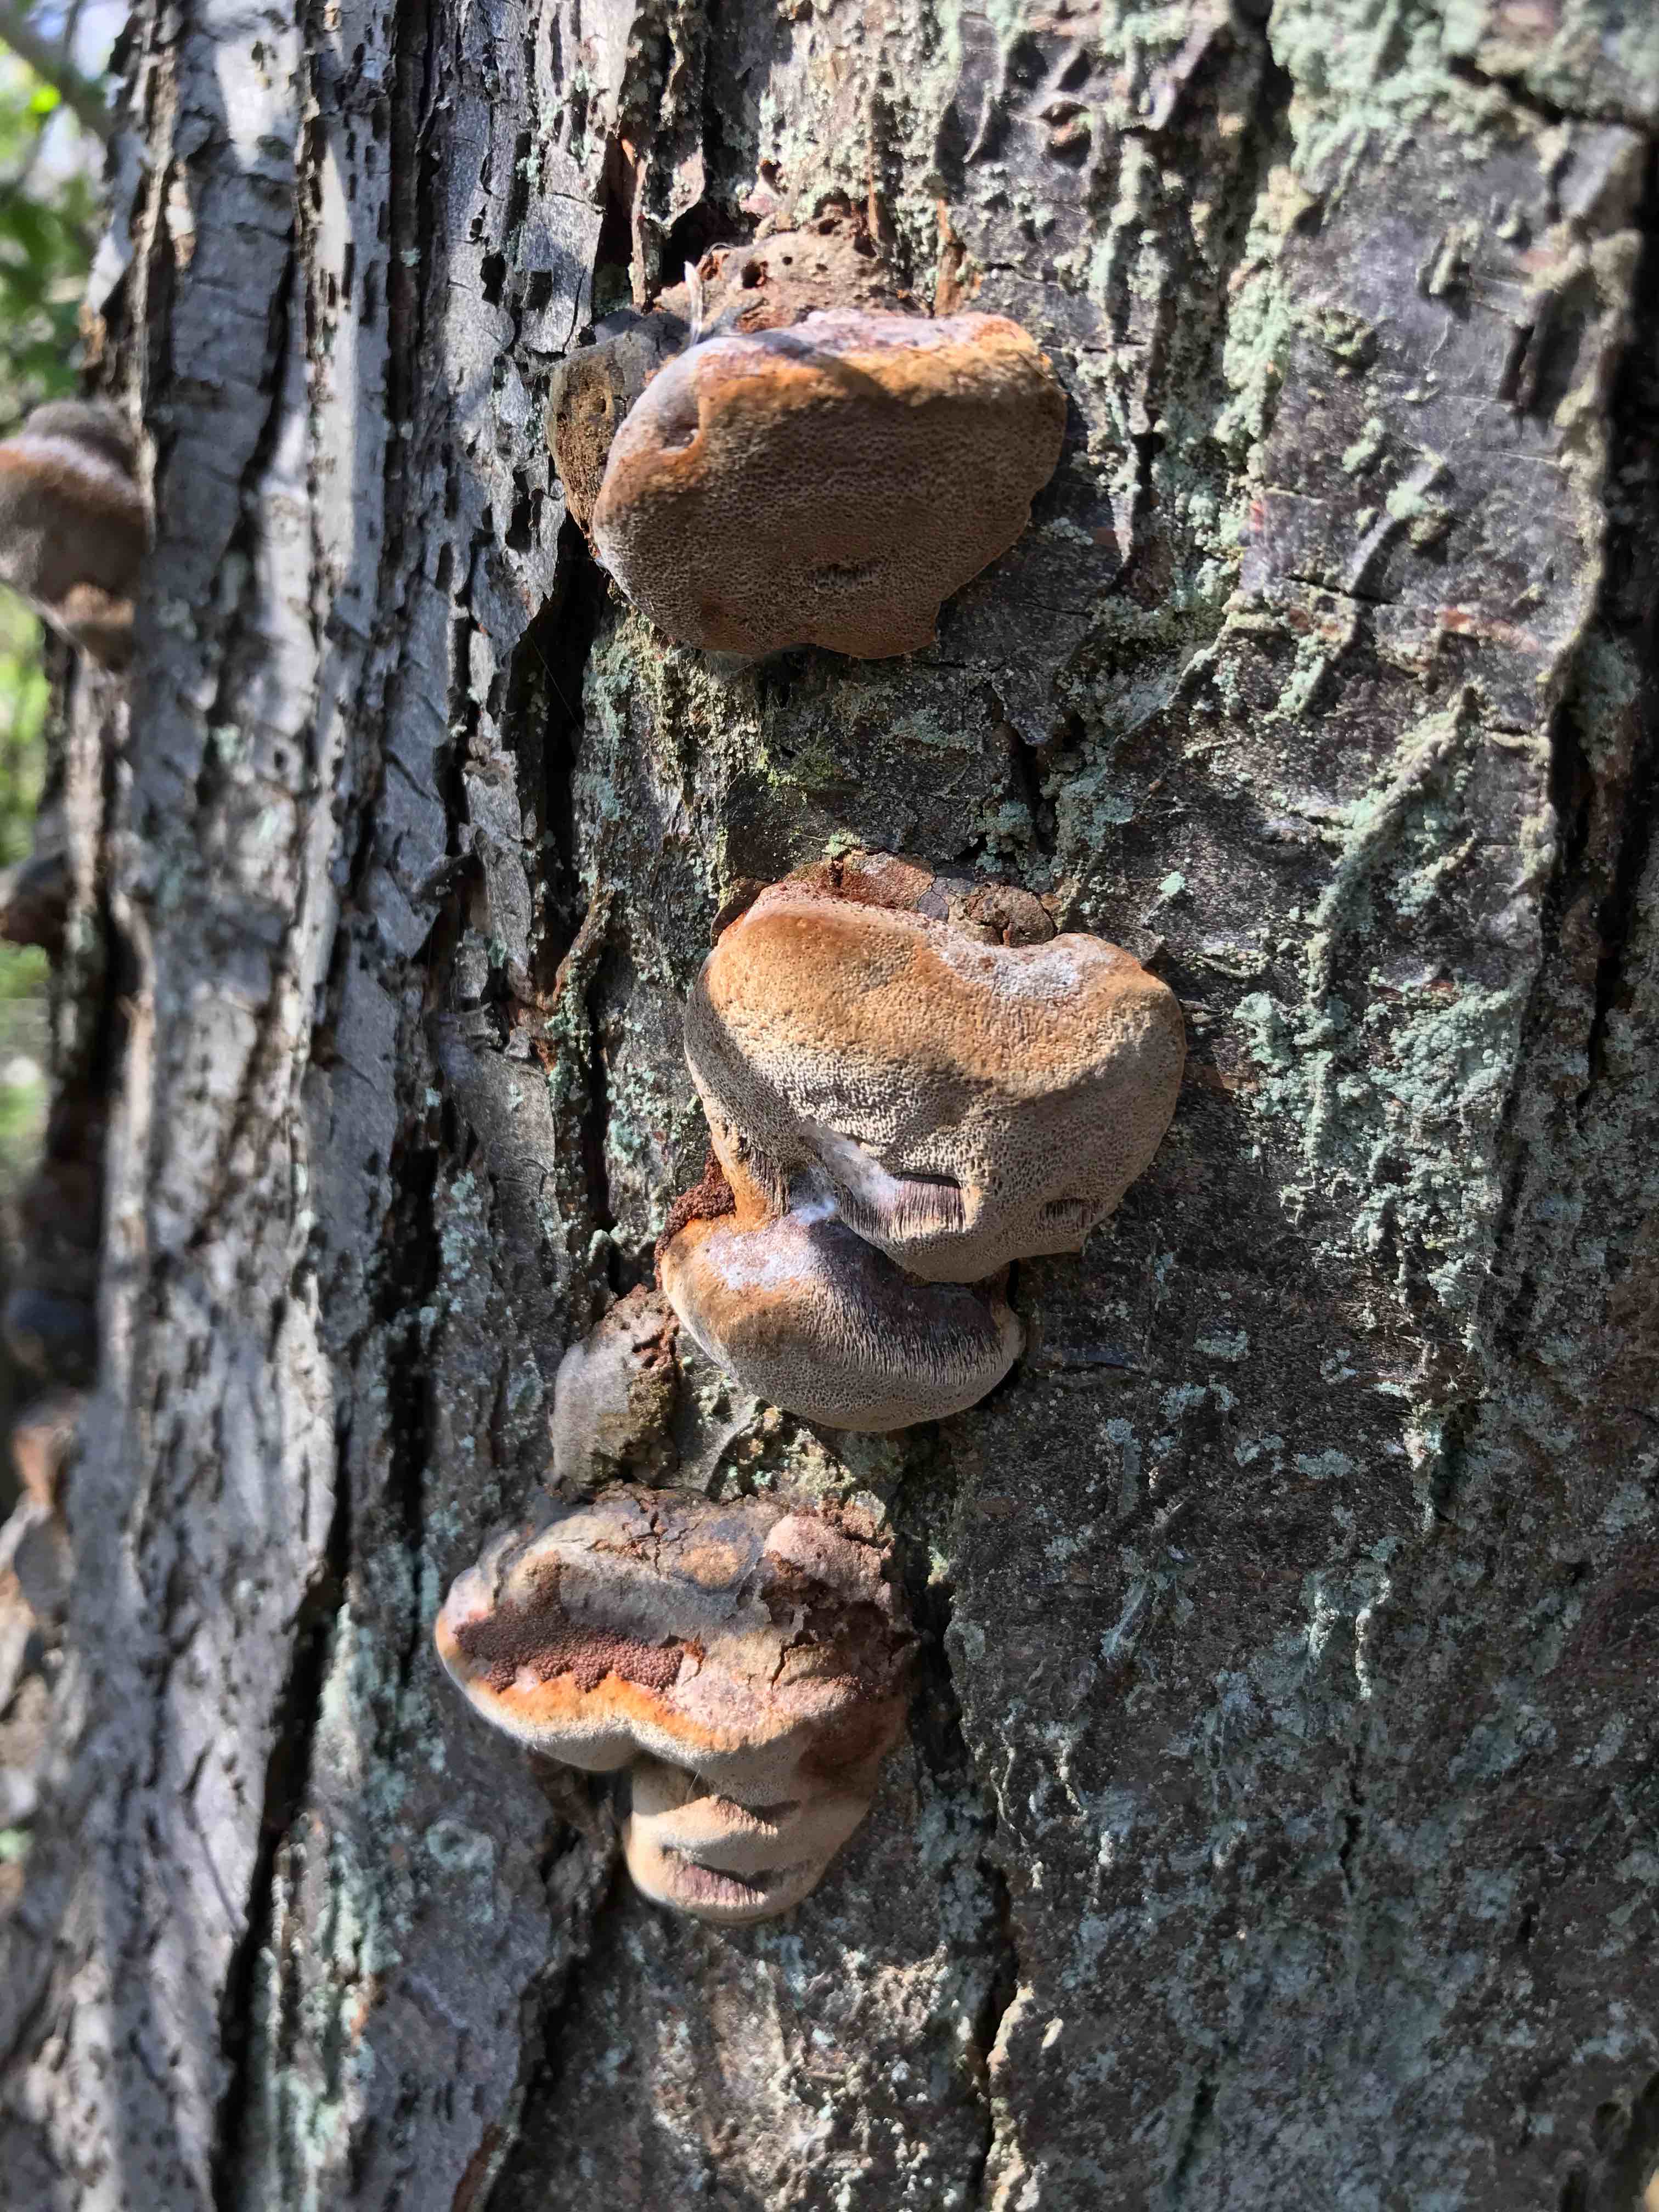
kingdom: Fungi
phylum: Basidiomycota
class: Agaricomycetes
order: Hymenochaetales
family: Hymenochaetaceae
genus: Phellinus
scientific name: Phellinus pomaceus
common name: blomme-ildporesvamp
